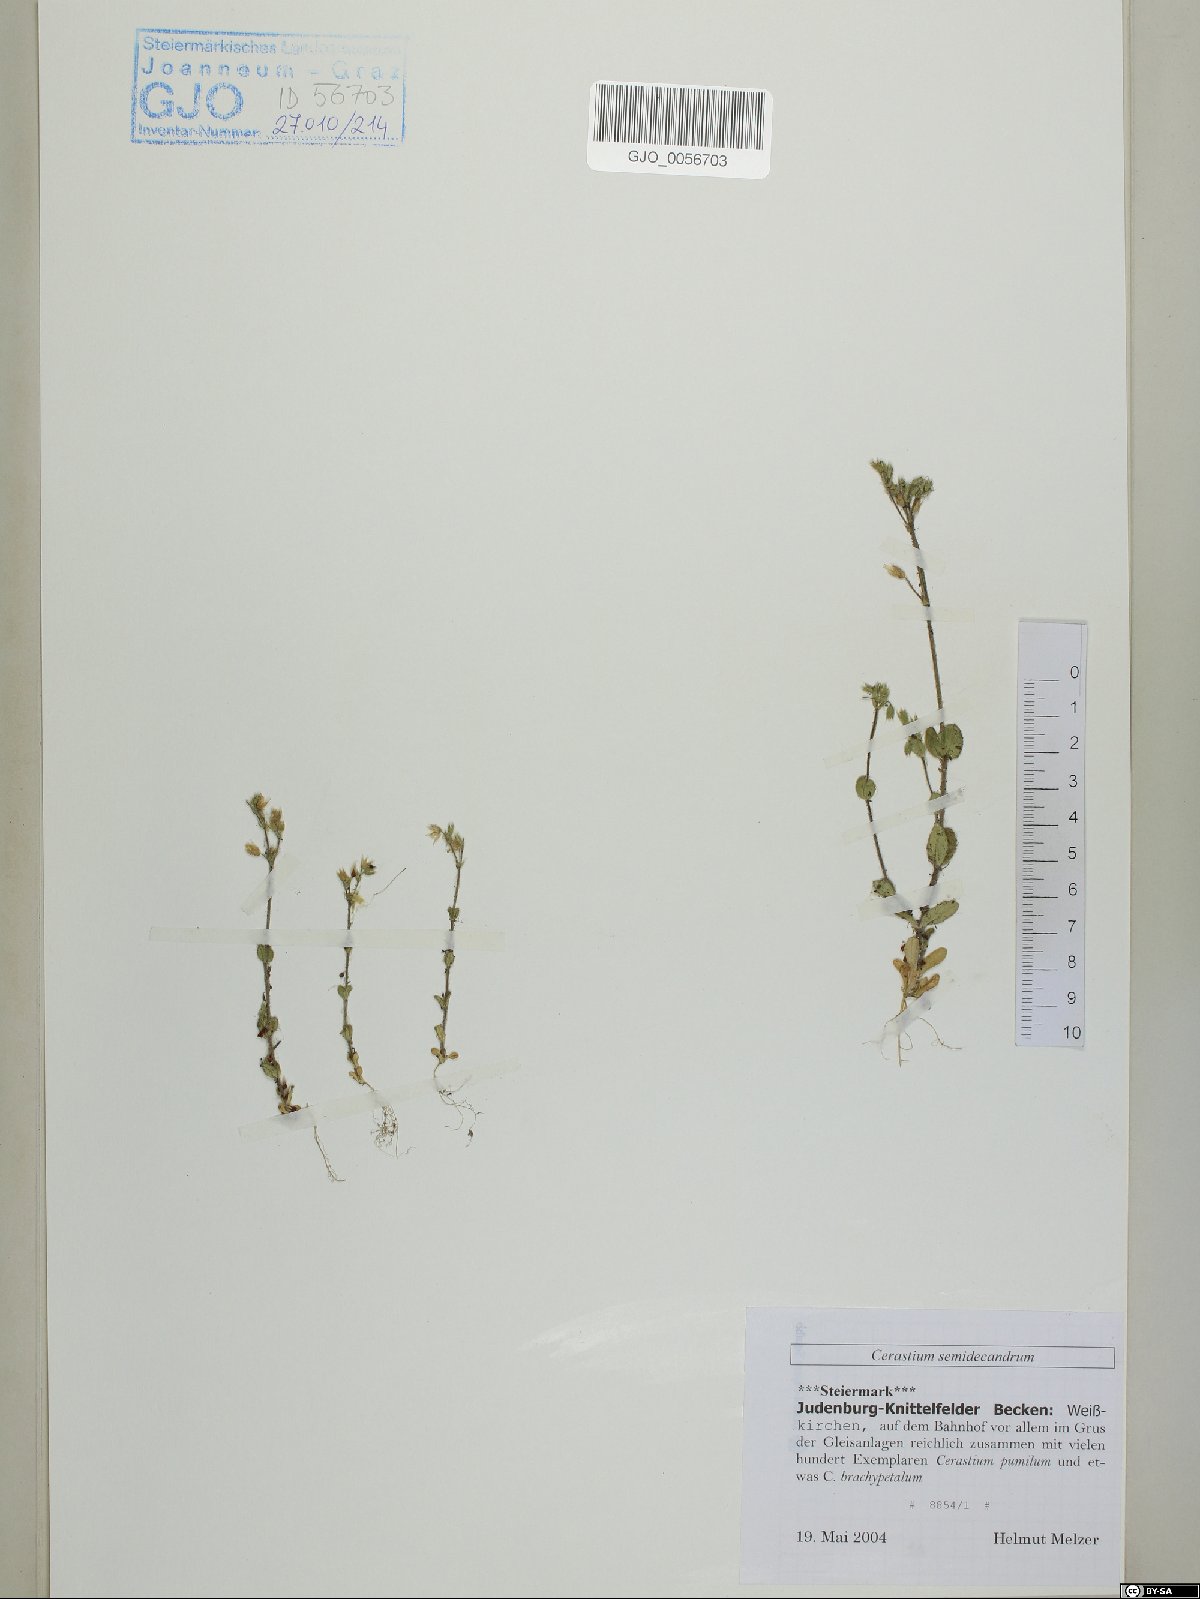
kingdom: Plantae
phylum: Tracheophyta
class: Magnoliopsida
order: Caryophyllales
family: Caryophyllaceae
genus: Cerastium
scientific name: Cerastium semidecandrum
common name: Little mouse-ear
